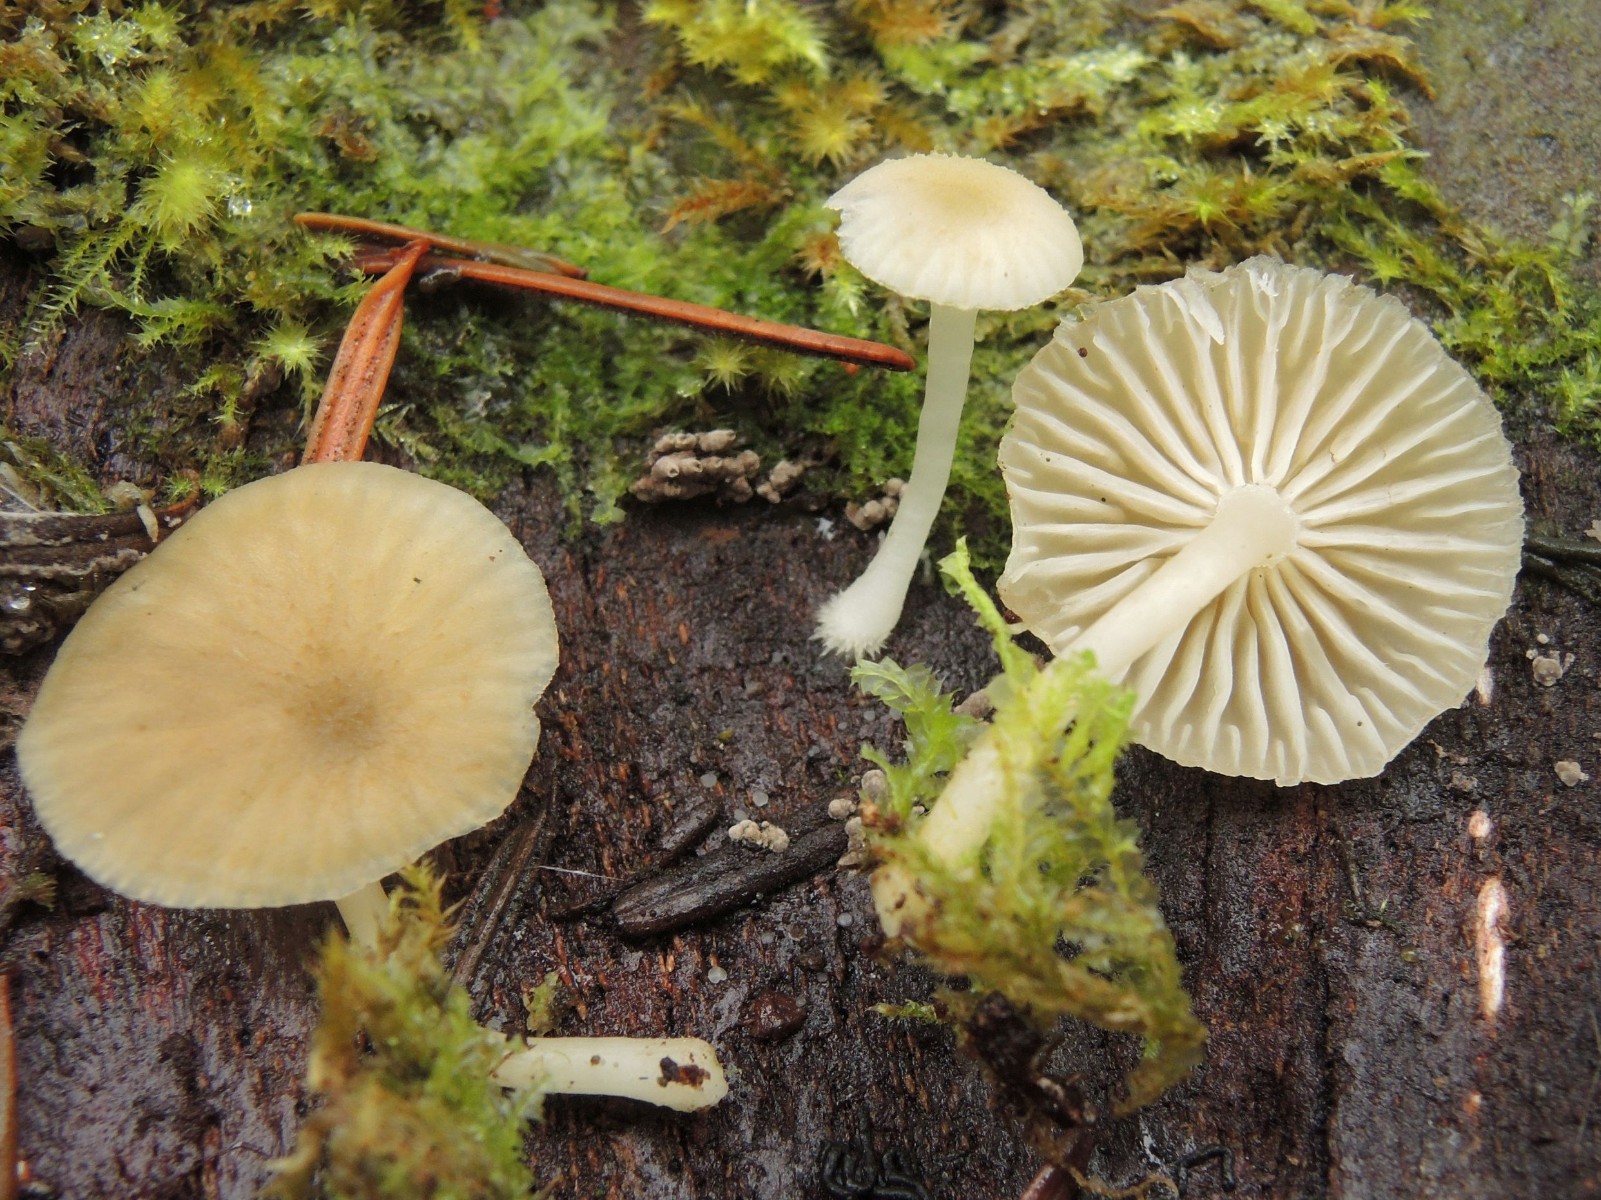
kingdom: Fungi
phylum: Basidiomycota
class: Agaricomycetes
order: Agaricales
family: Hygrophoraceae
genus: Chrysomphalina
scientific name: Chrysomphalina grossula
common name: stød-gyldenblad
